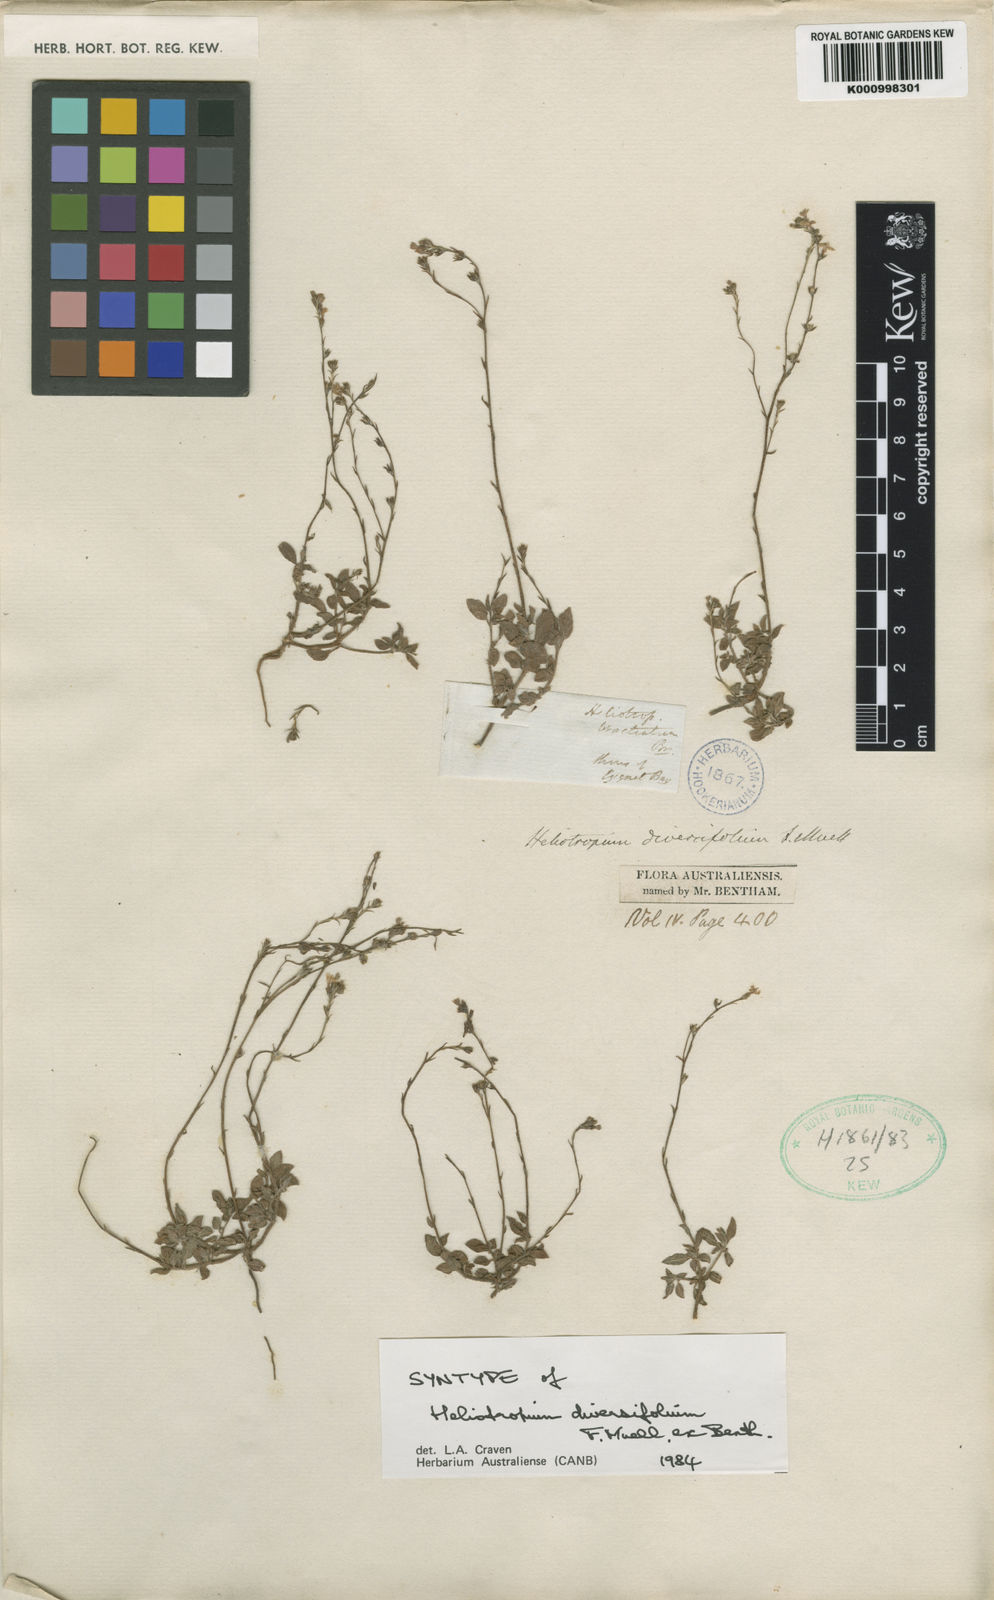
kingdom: Plantae
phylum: Tracheophyta
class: Magnoliopsida
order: Boraginales
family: Heliotropiaceae
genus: Euploca
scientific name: Euploca diversifolia
